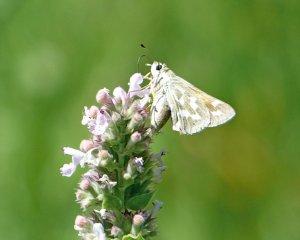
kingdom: Animalia
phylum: Arthropoda
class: Insecta
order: Lepidoptera
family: Hesperiidae
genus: Hesperia
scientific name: Hesperia comma
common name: Western Branded Skipper
